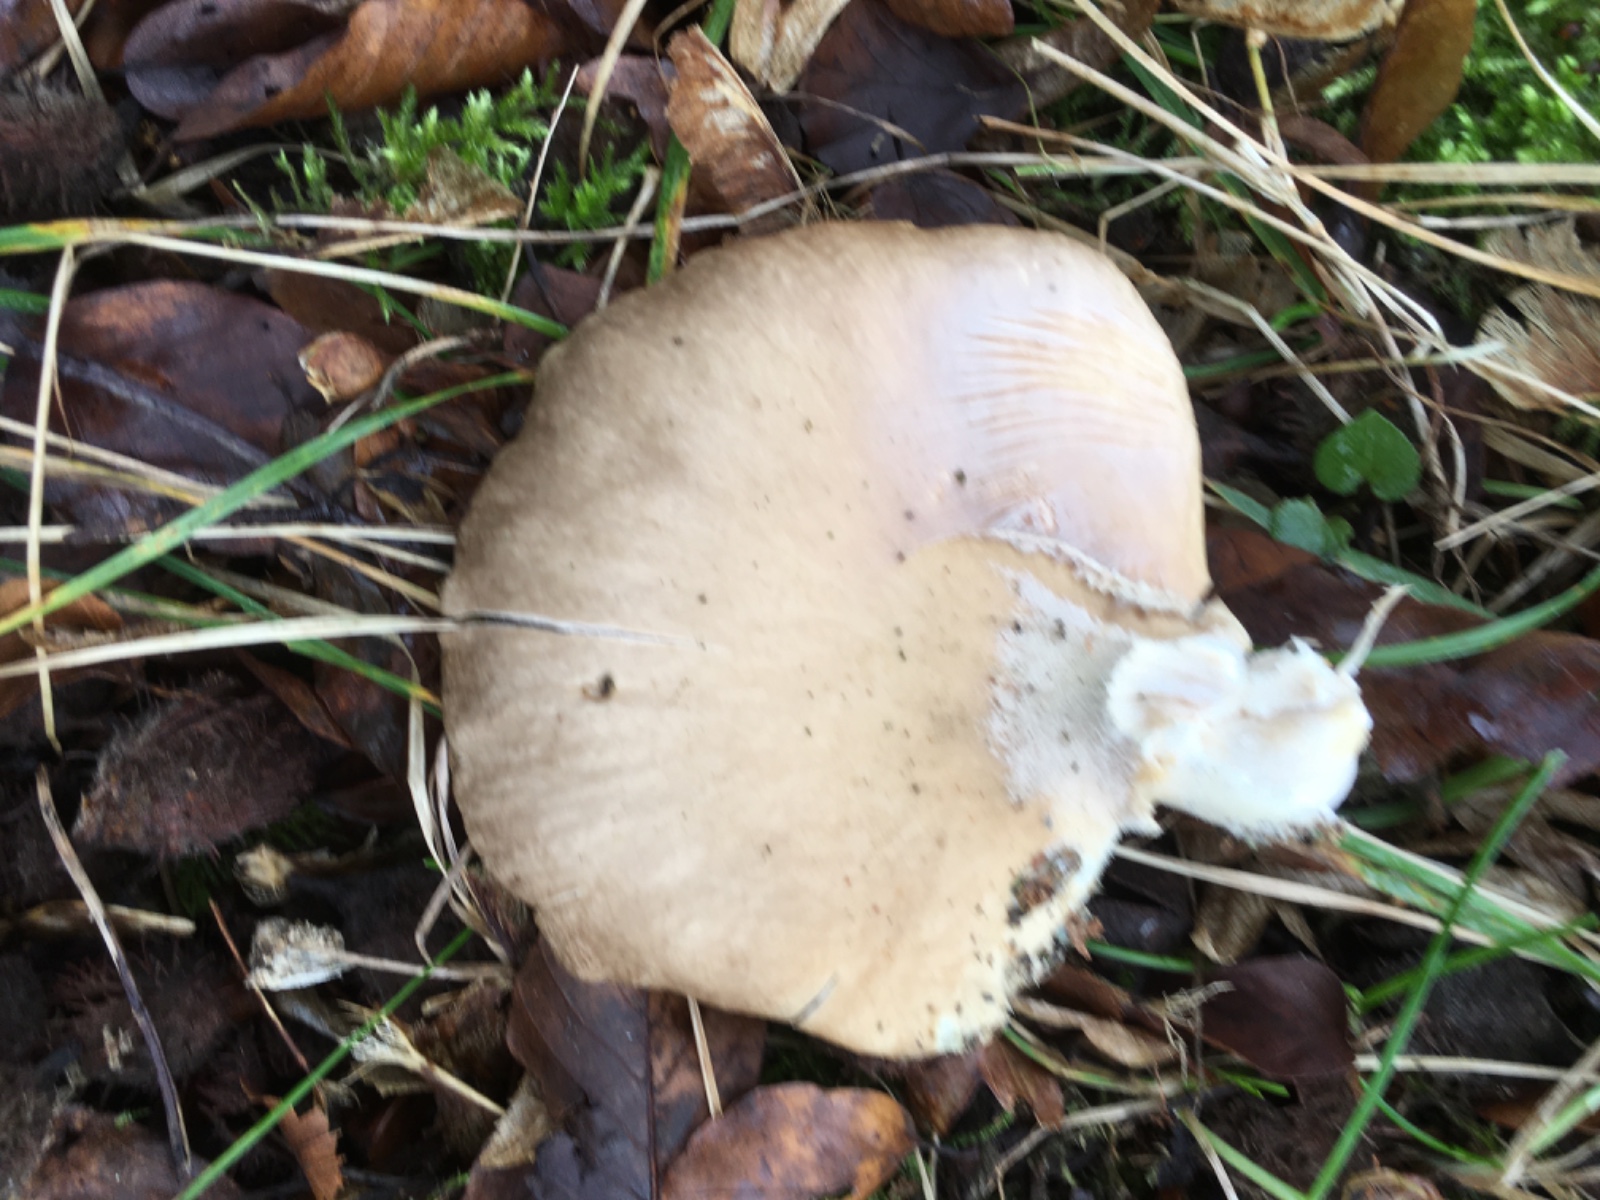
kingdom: Fungi
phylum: Basidiomycota
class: Agaricomycetes
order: Agaricales
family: Pleurotaceae
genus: Pleurotus
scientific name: Pleurotus ostreatus
